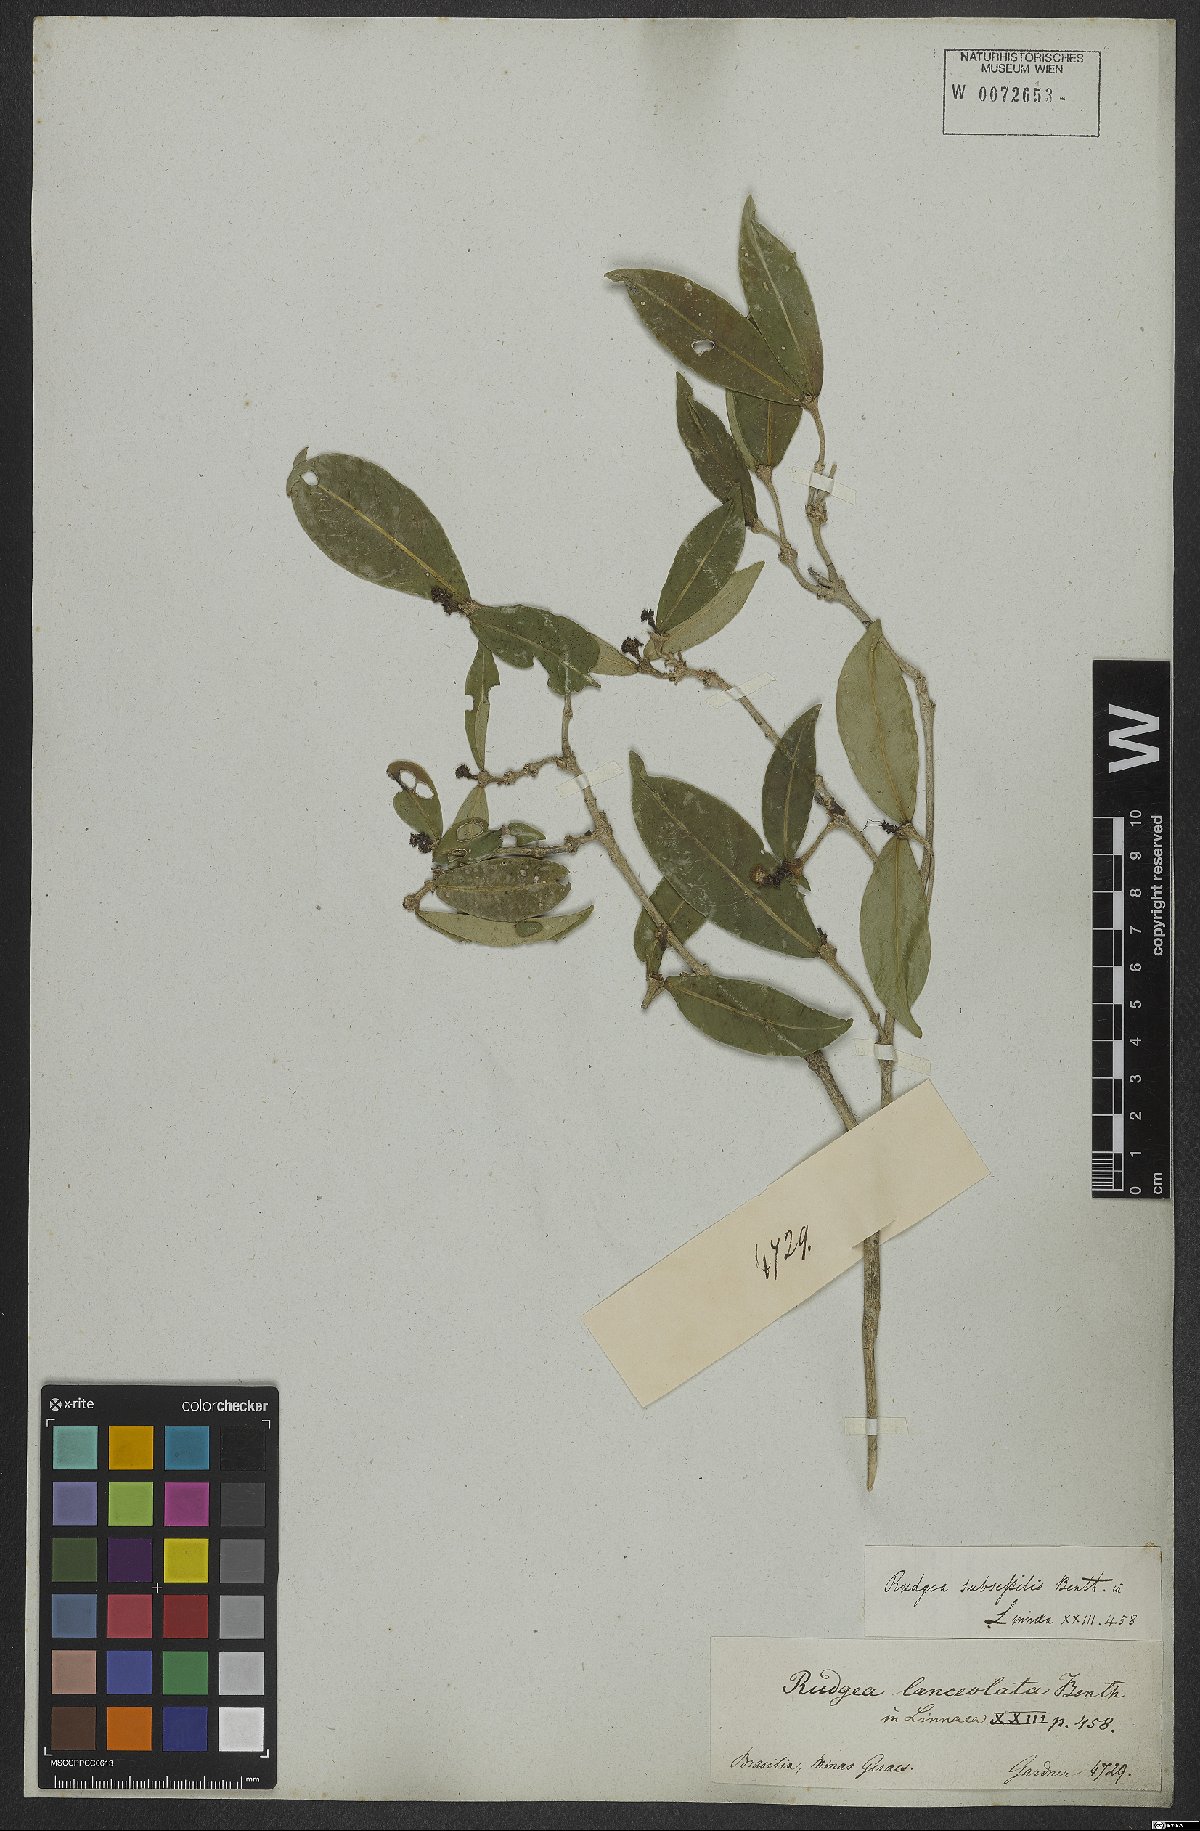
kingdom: Plantae
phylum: Tracheophyta
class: Magnoliopsida
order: Gentianales
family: Rubiaceae
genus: Rudgea
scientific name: Rudgea sessilis
